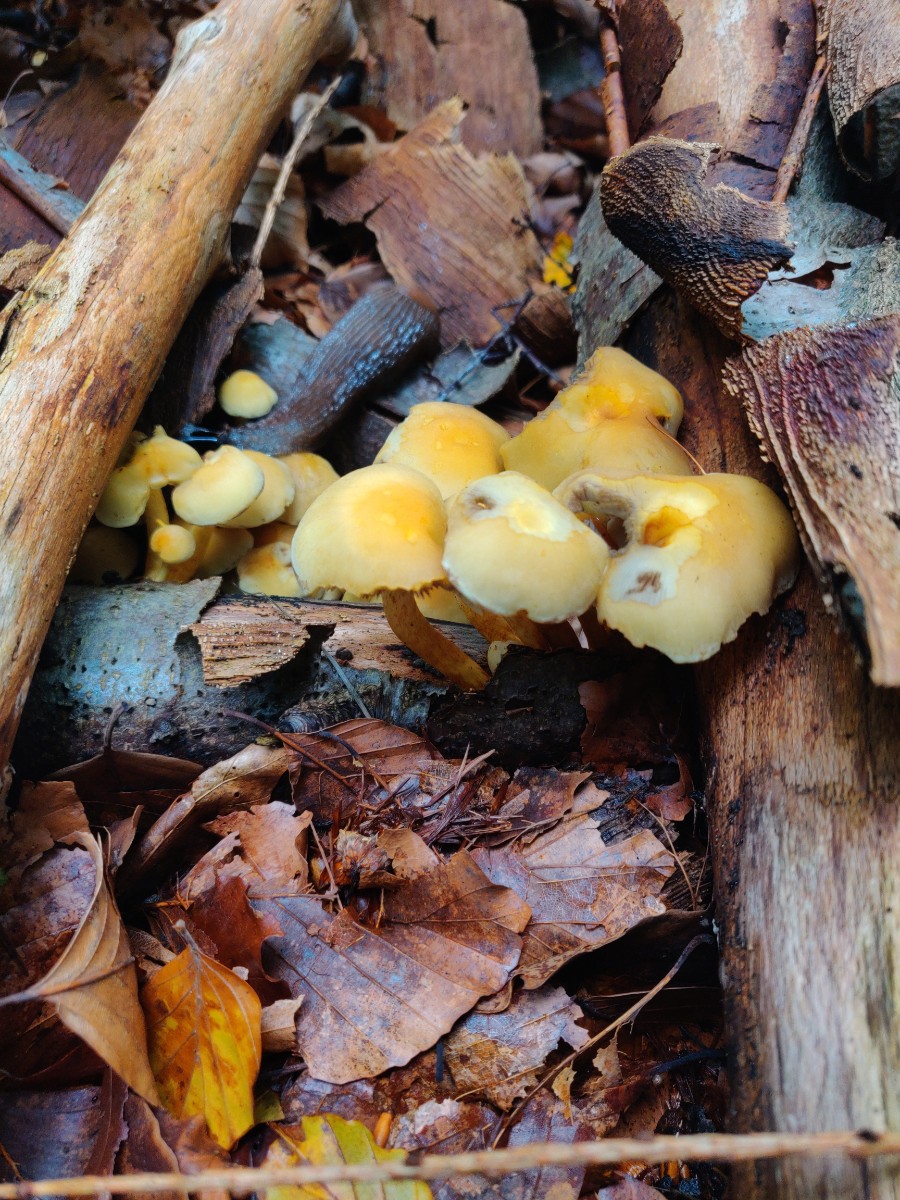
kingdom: Fungi
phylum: Basidiomycota
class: Agaricomycetes
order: Agaricales
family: Strophariaceae
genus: Hypholoma
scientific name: Hypholoma fasciculare
